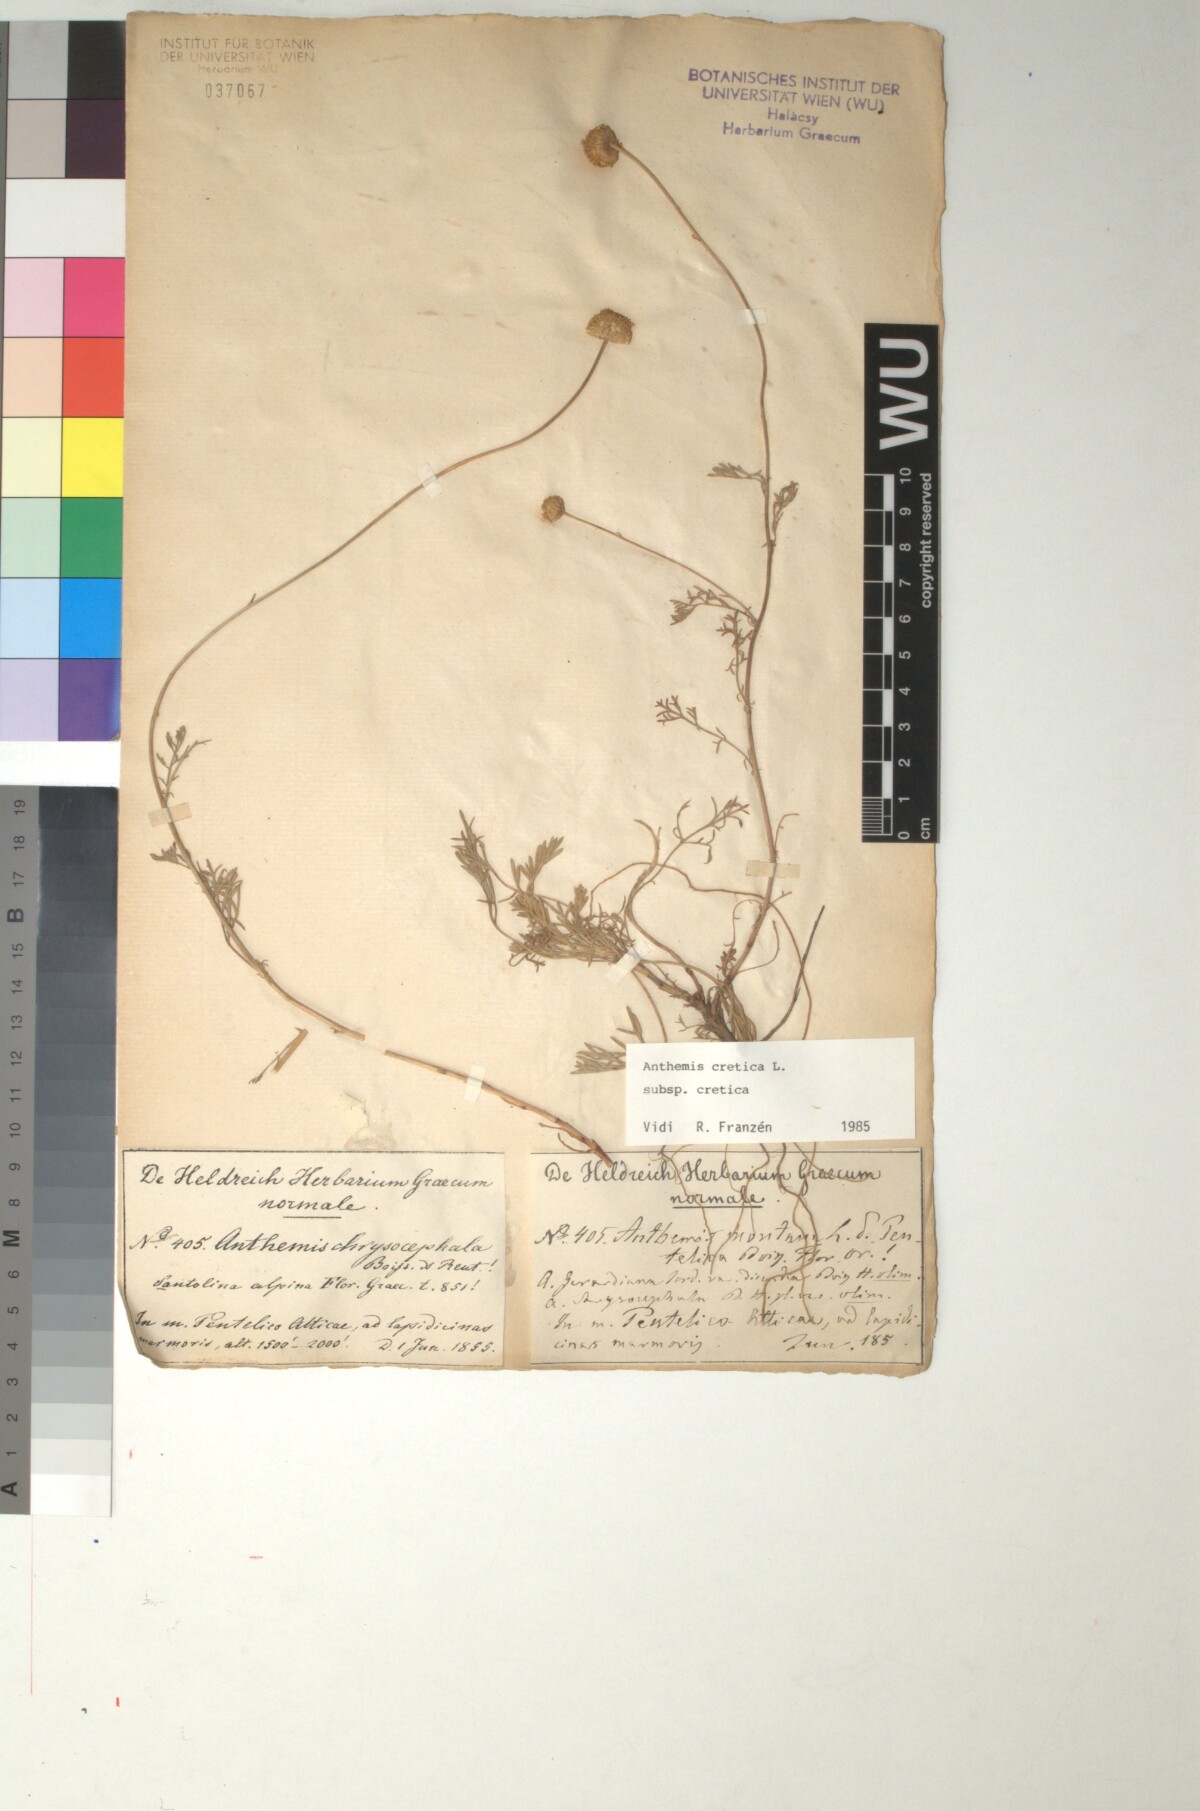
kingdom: Plantae
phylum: Tracheophyta
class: Magnoliopsida
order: Asterales
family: Asteraceae
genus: Anthemis
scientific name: Anthemis cretica
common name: Mountain dog-daisy
